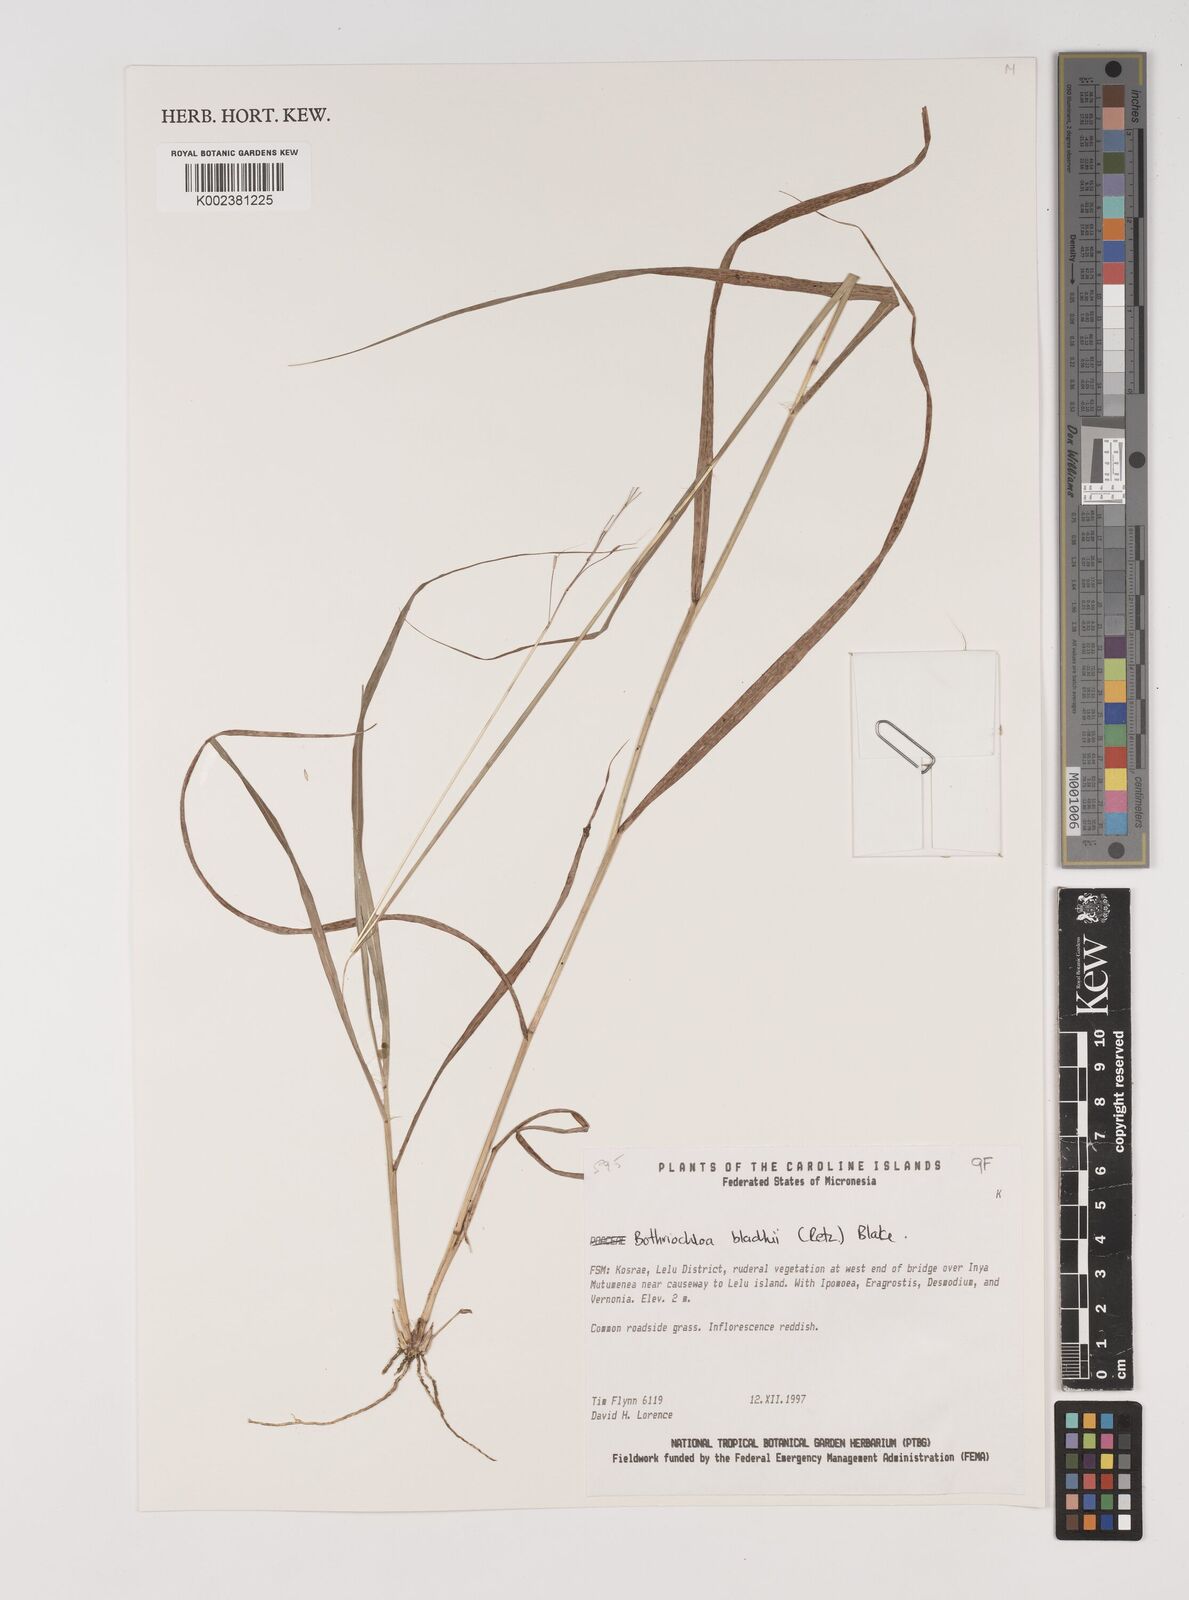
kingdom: Plantae
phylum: Tracheophyta
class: Liliopsida
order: Poales
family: Poaceae
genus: Bothriochloa
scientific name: Bothriochloa bladhii
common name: Caucasian bluestem
